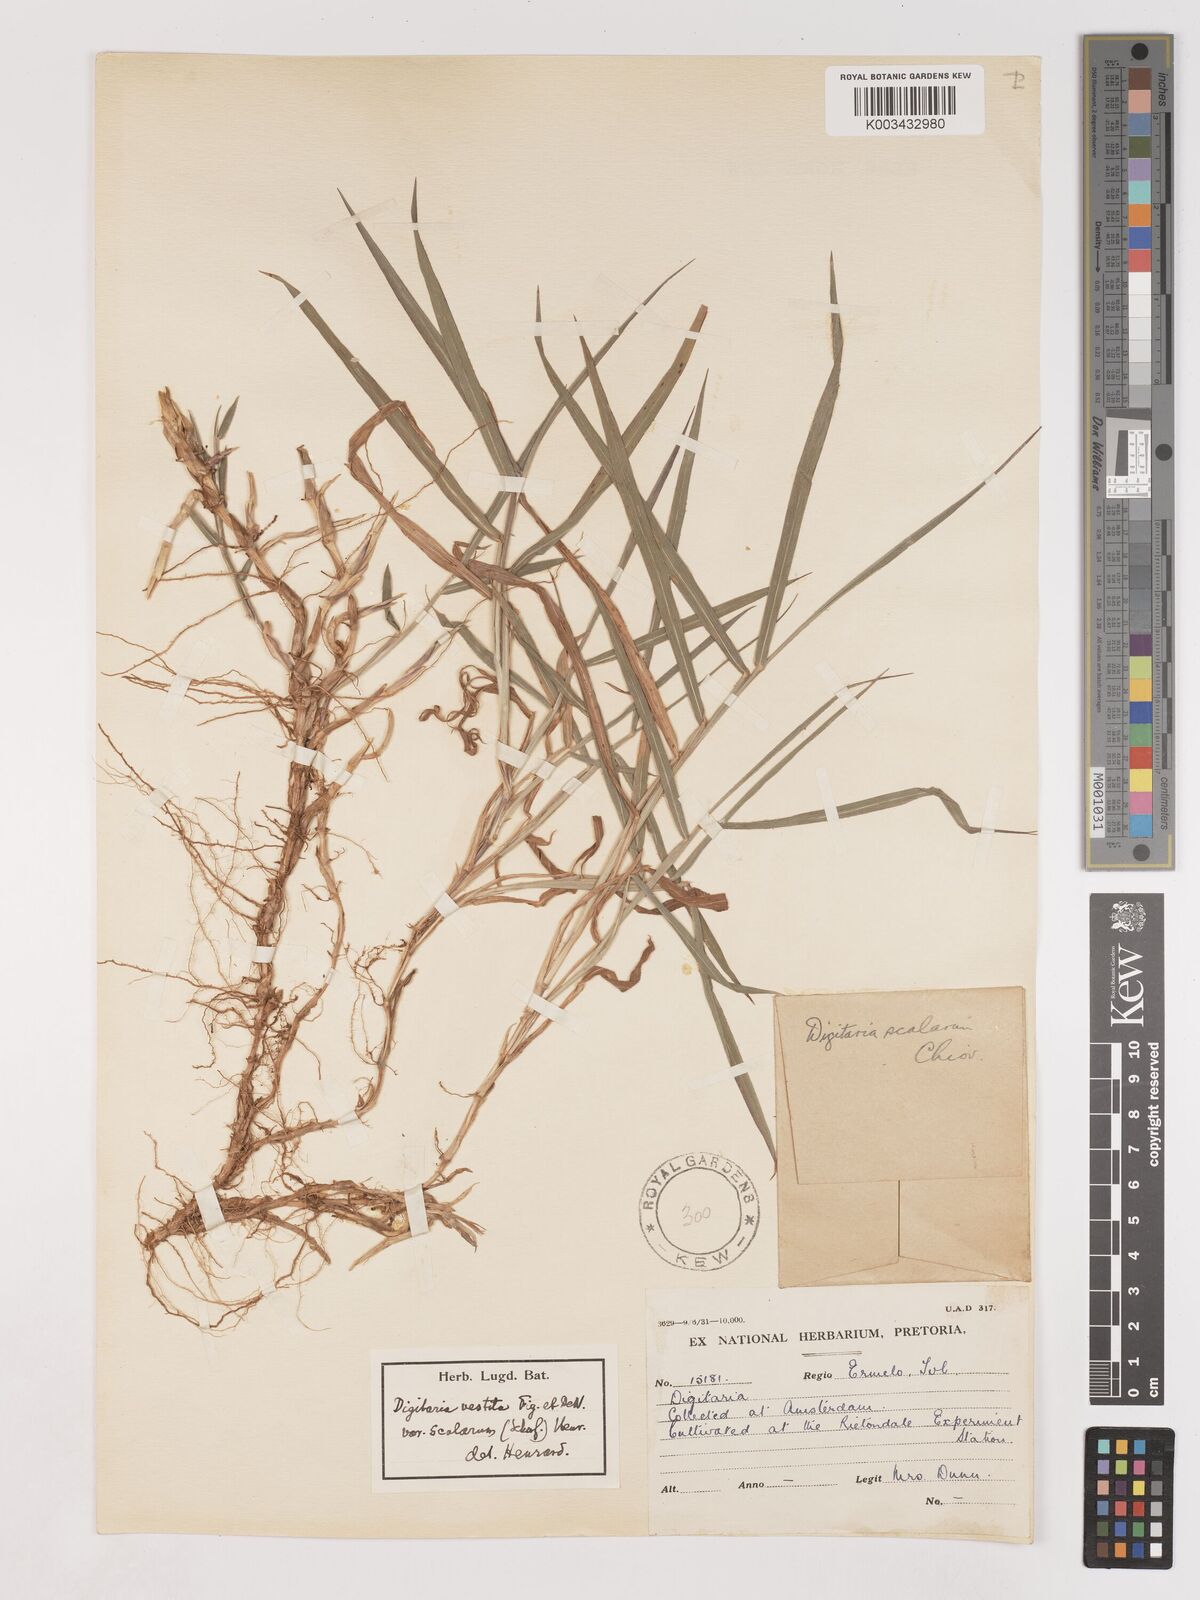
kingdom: Plantae
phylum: Tracheophyta
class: Liliopsida
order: Poales
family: Poaceae
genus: Digitaria
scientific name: Digitaria abyssinica
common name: African couchgrass
